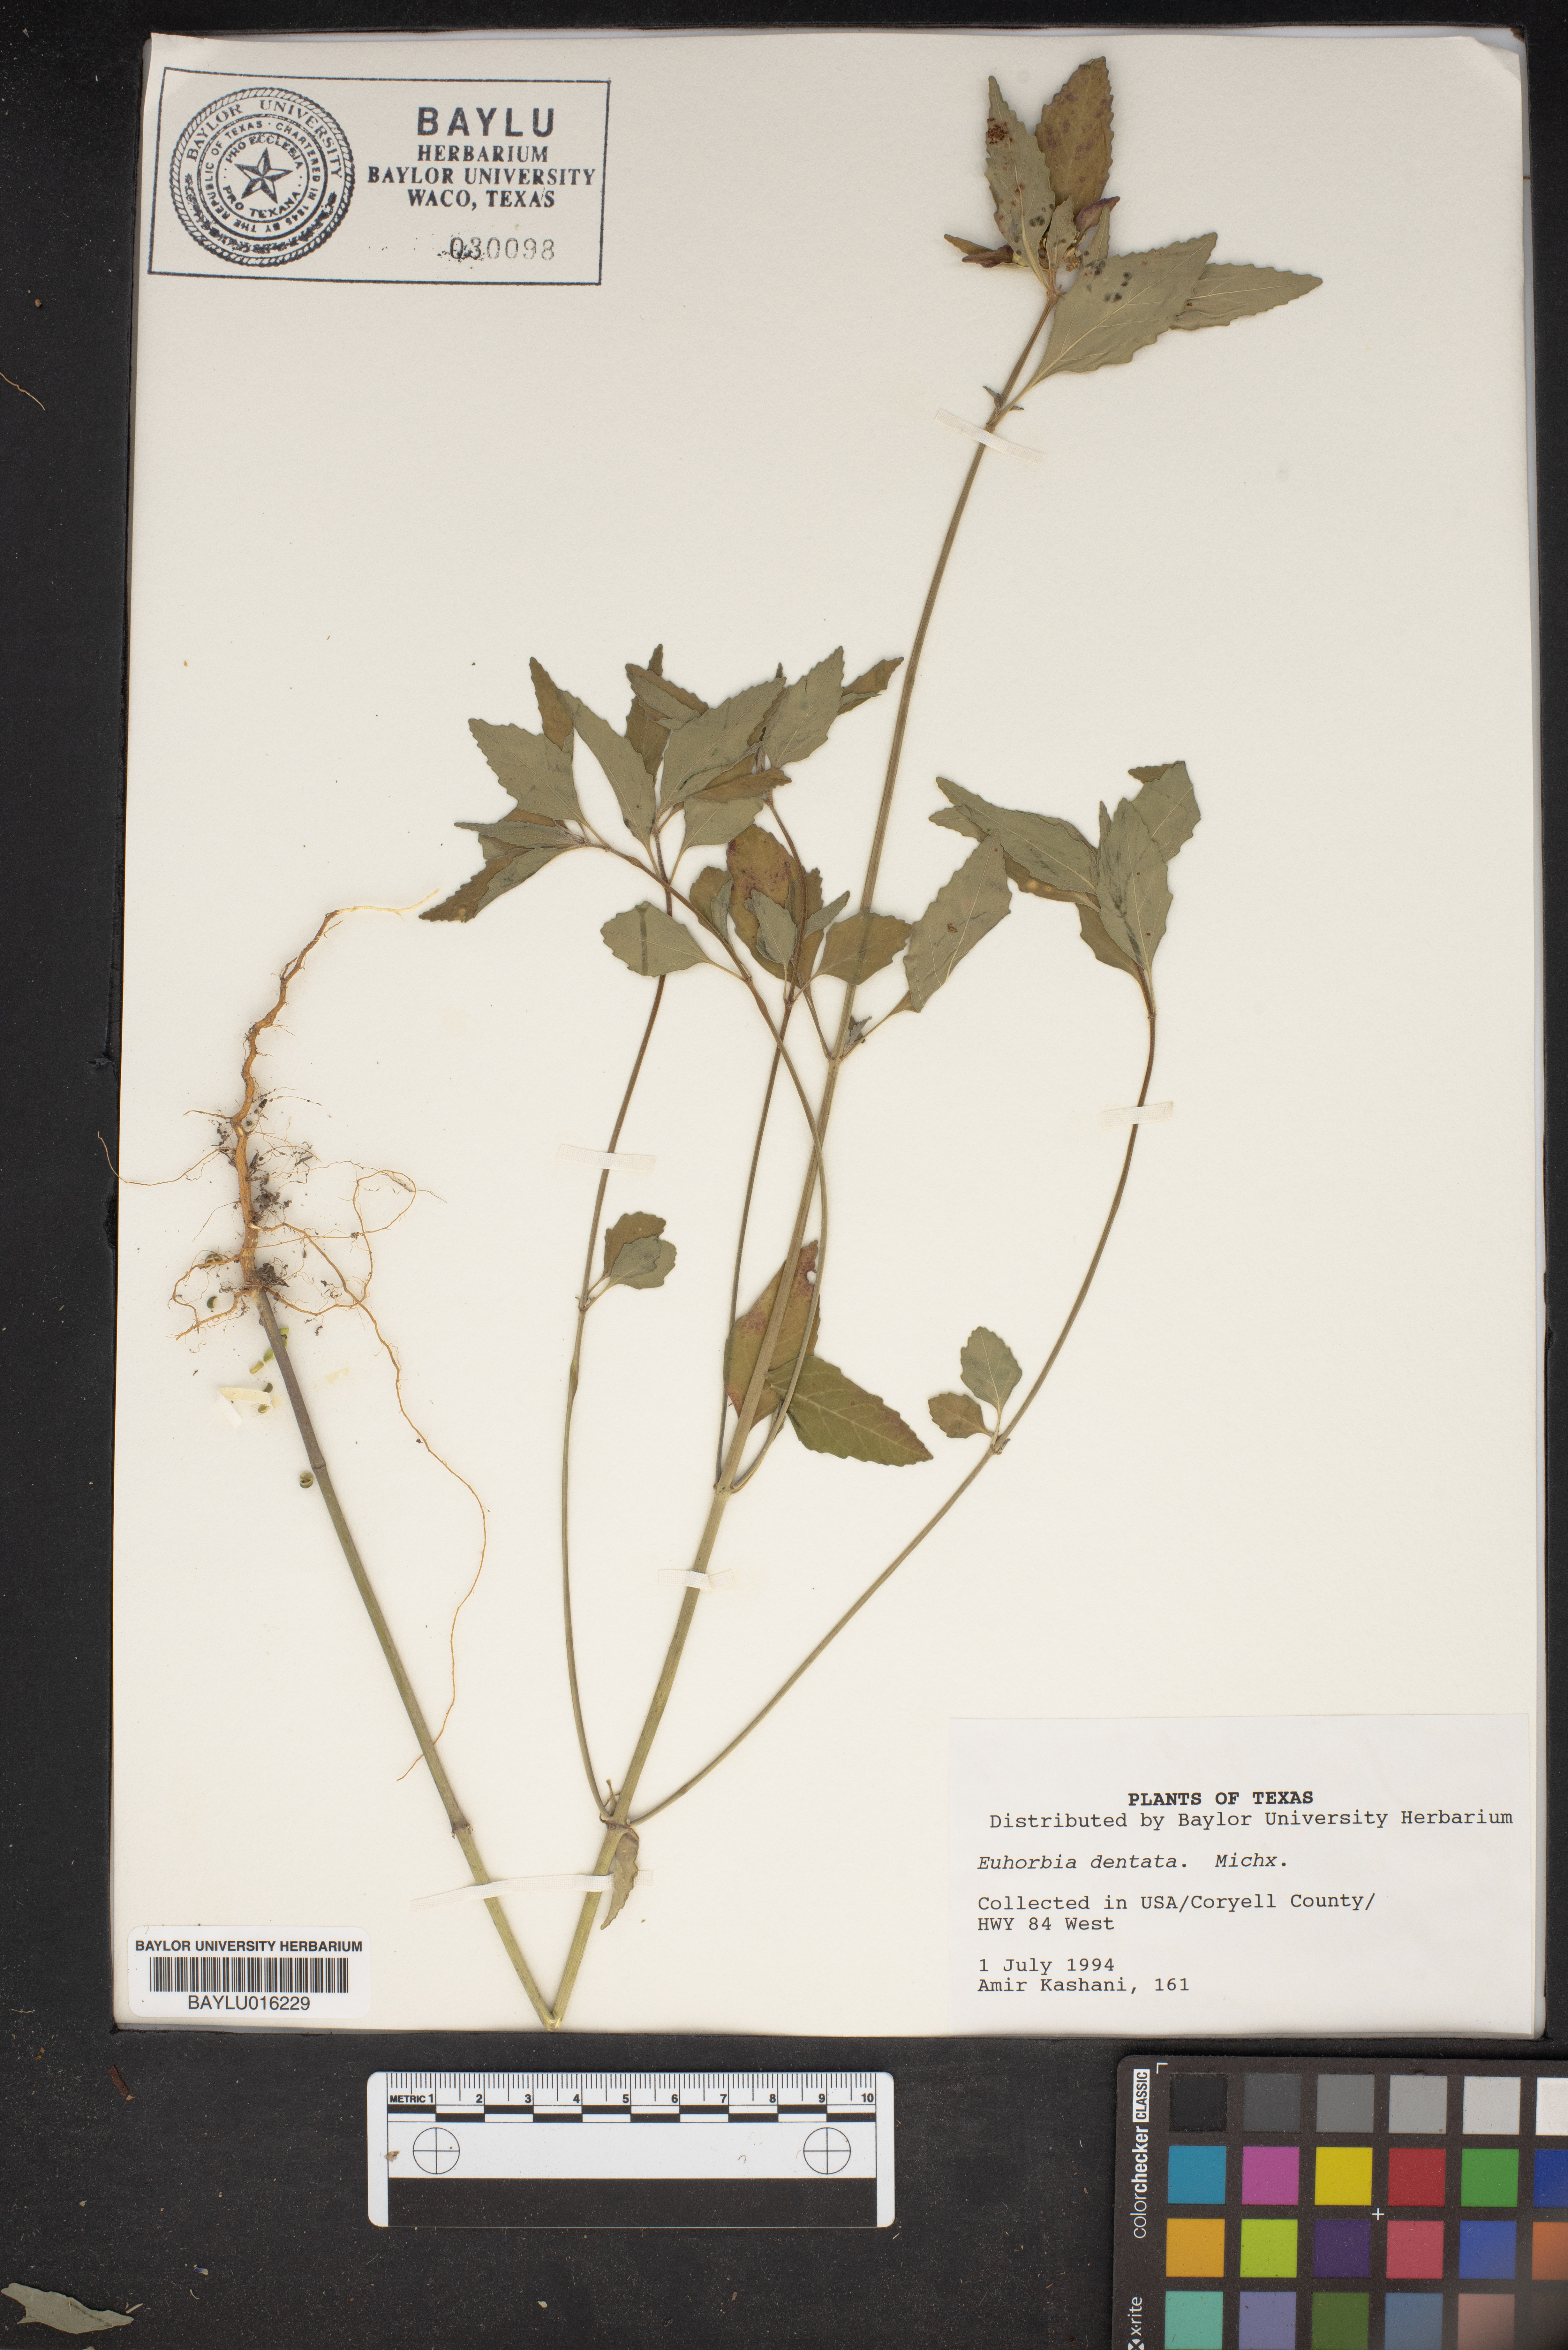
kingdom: Plantae
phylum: Tracheophyta
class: Magnoliopsida
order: Malpighiales
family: Euphorbiaceae
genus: Euphorbia
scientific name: Euphorbia dentata
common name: Dentate spurge
